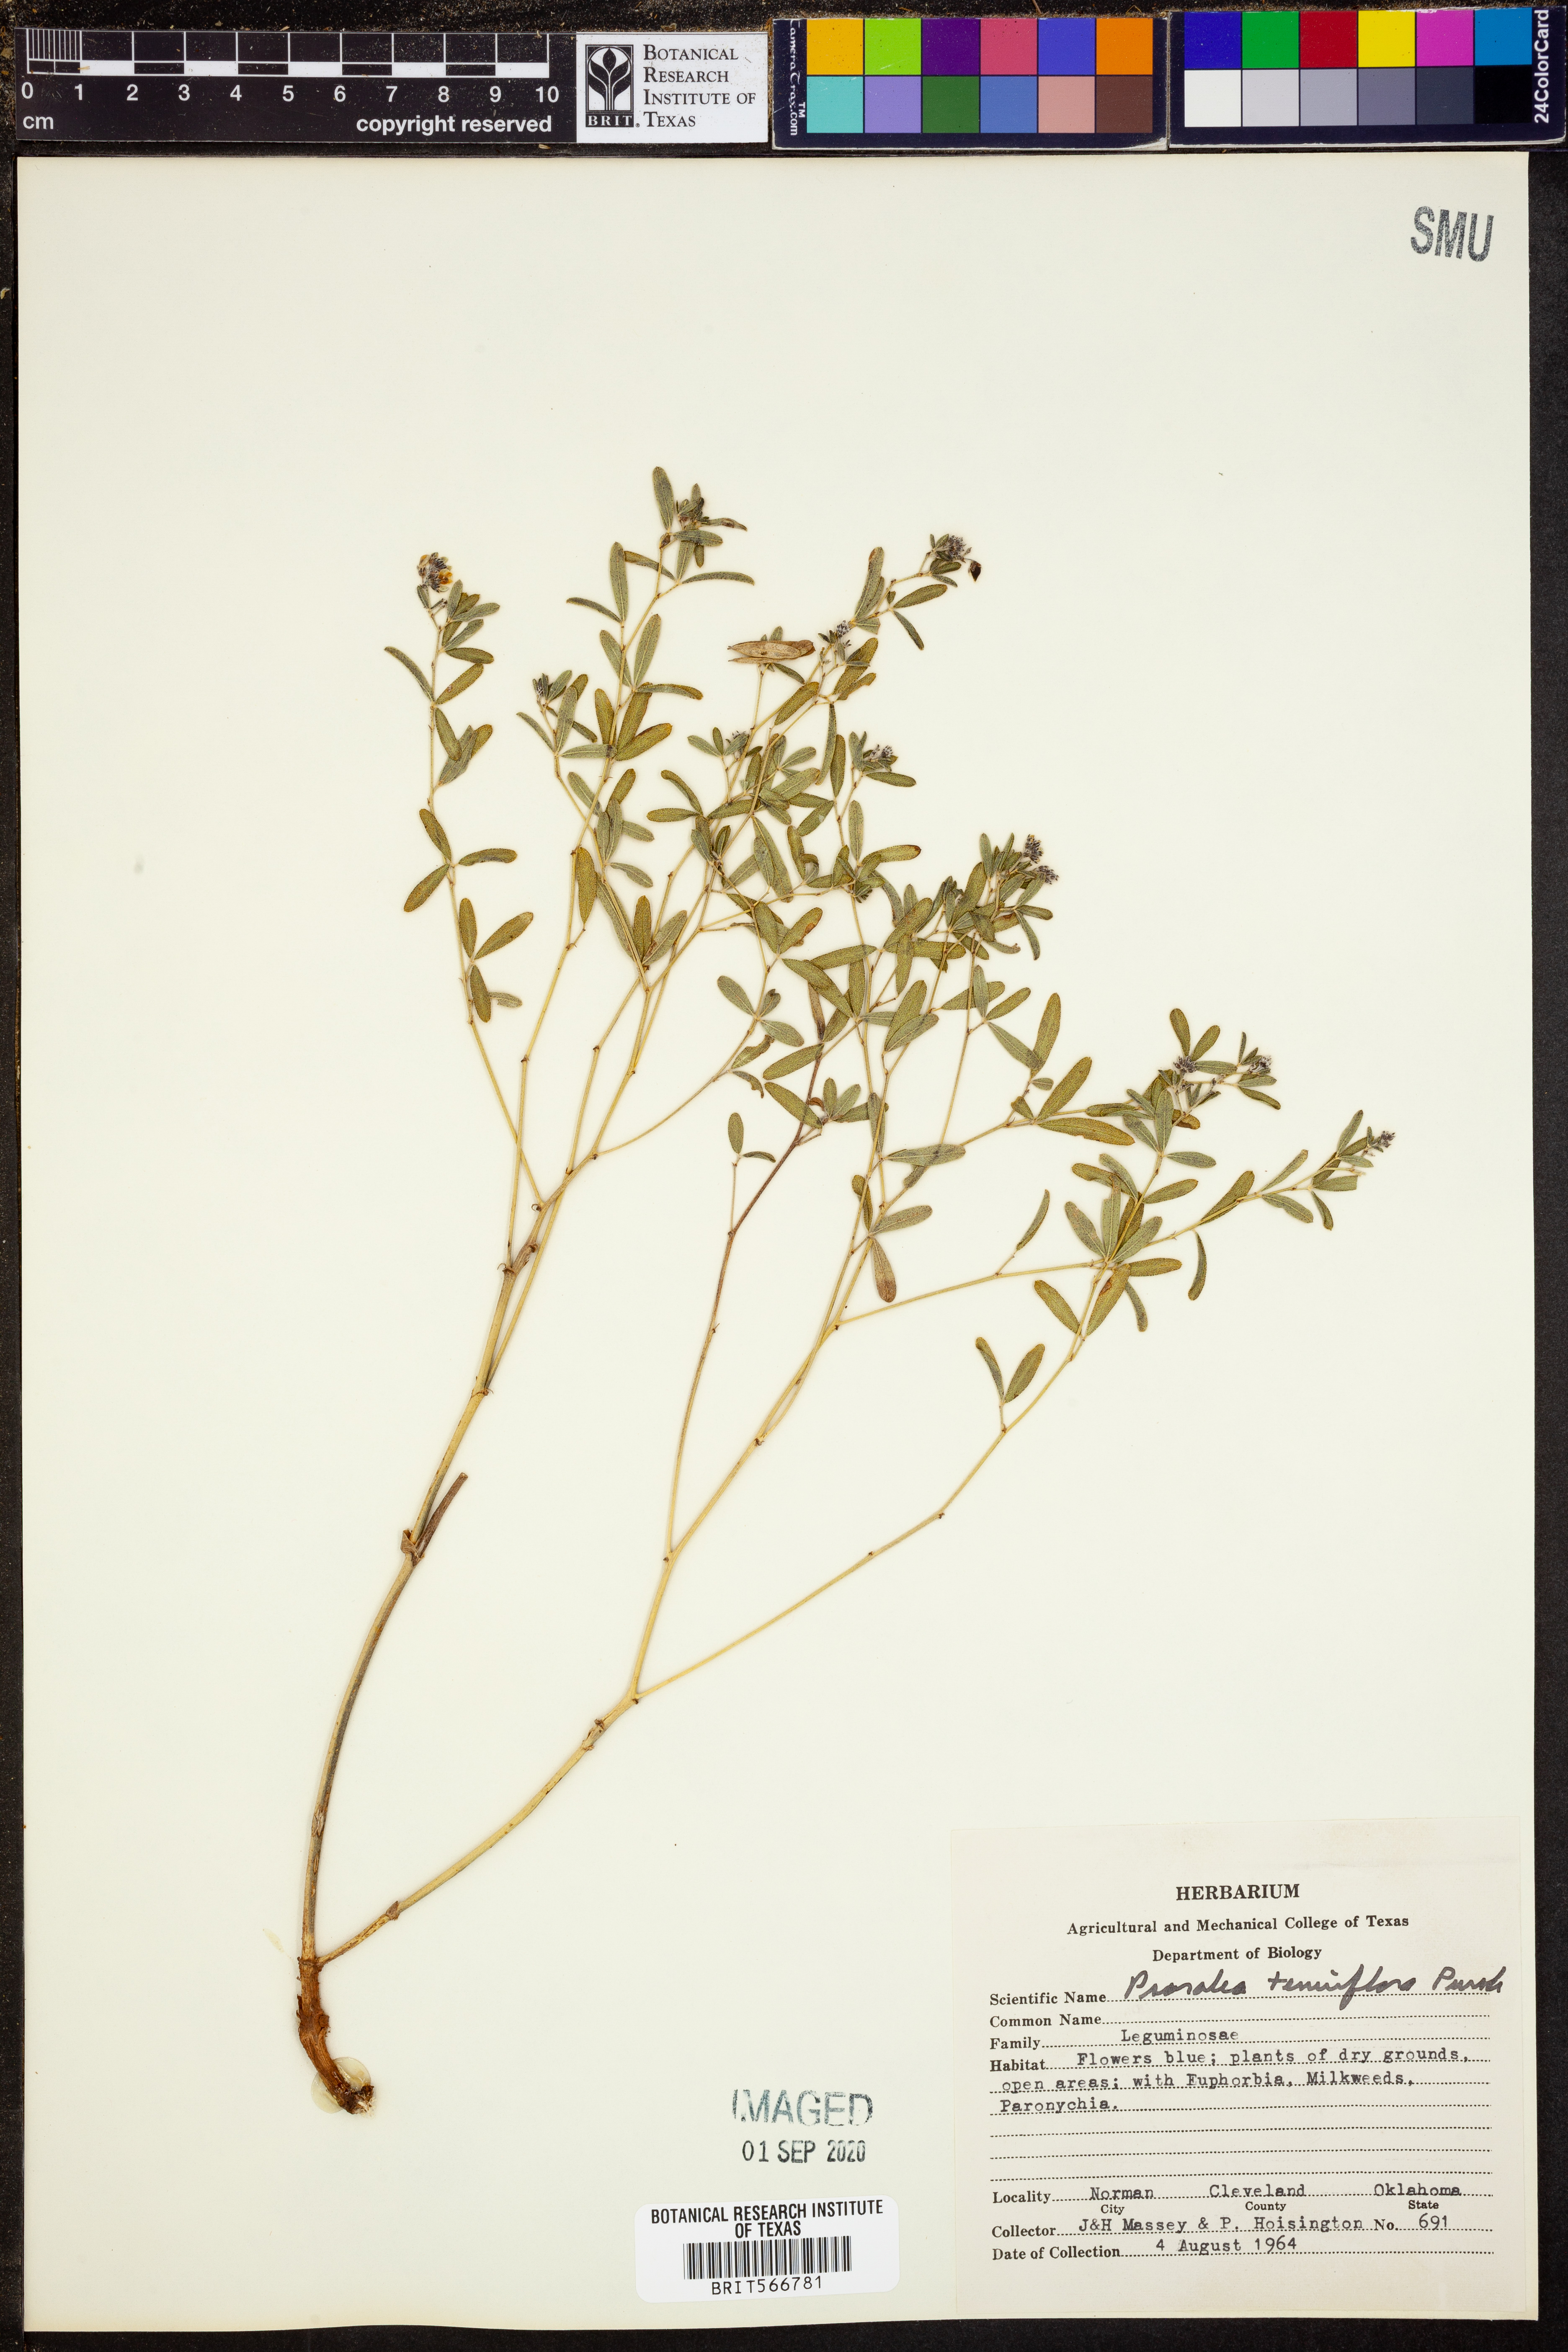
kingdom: Plantae
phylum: Tracheophyta
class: Magnoliopsida
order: Fabales
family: Fabaceae
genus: Pediomelum
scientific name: Pediomelum tenuiflorum
